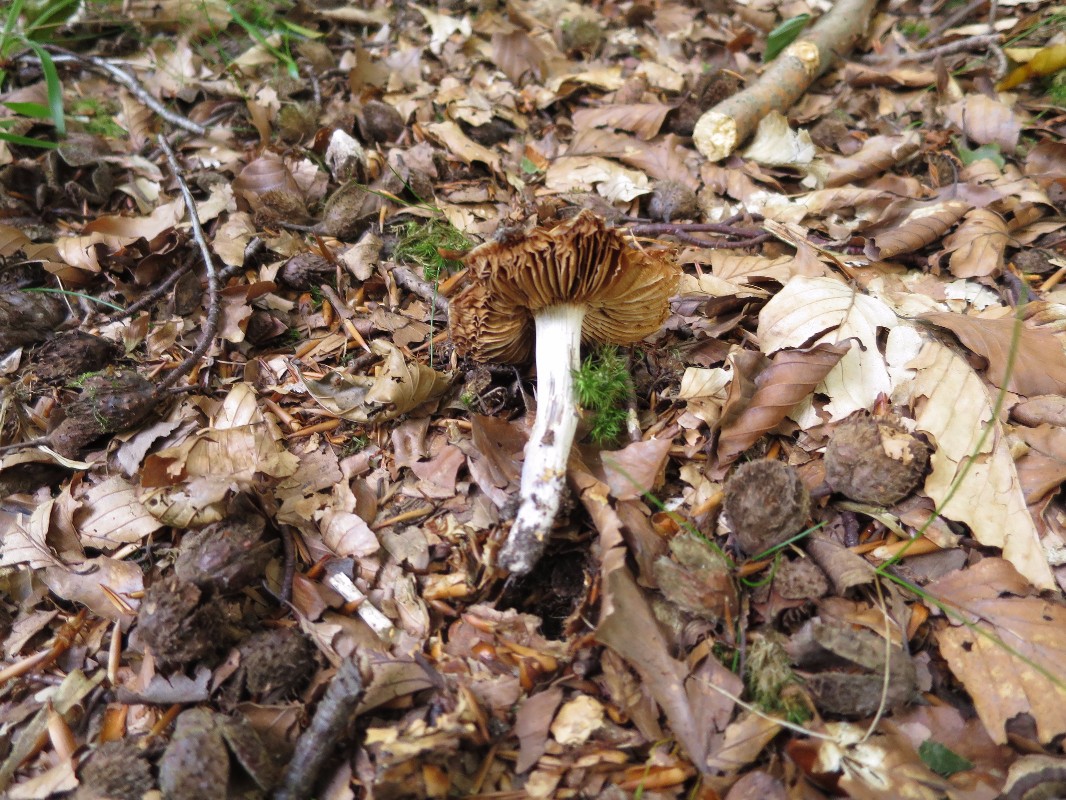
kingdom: Fungi
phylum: Basidiomycota
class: Agaricomycetes
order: Agaricales
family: Physalacriaceae
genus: Hymenopellis
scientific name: Hymenopellis radicata
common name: almindelig pælerodshat
